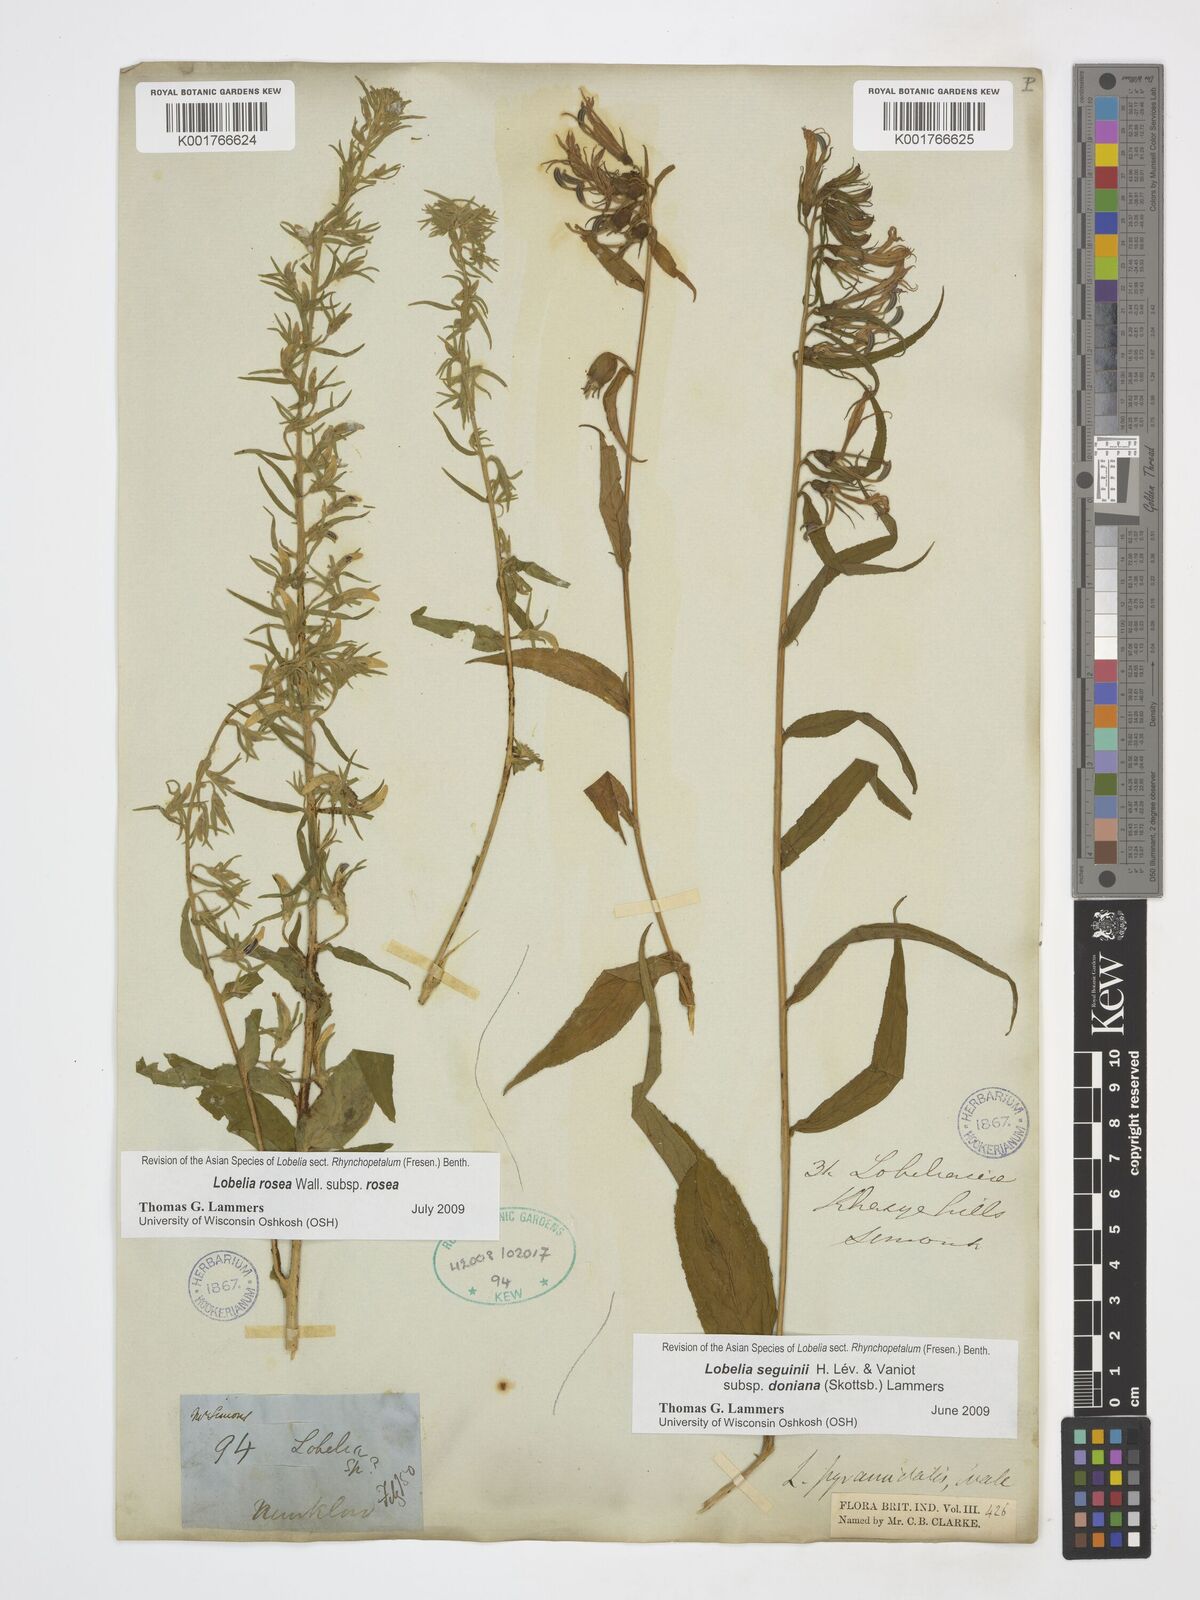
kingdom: Plantae
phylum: Tracheophyta
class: Magnoliopsida
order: Asterales
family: Campanulaceae
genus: Lobelia
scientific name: Lobelia rosea
